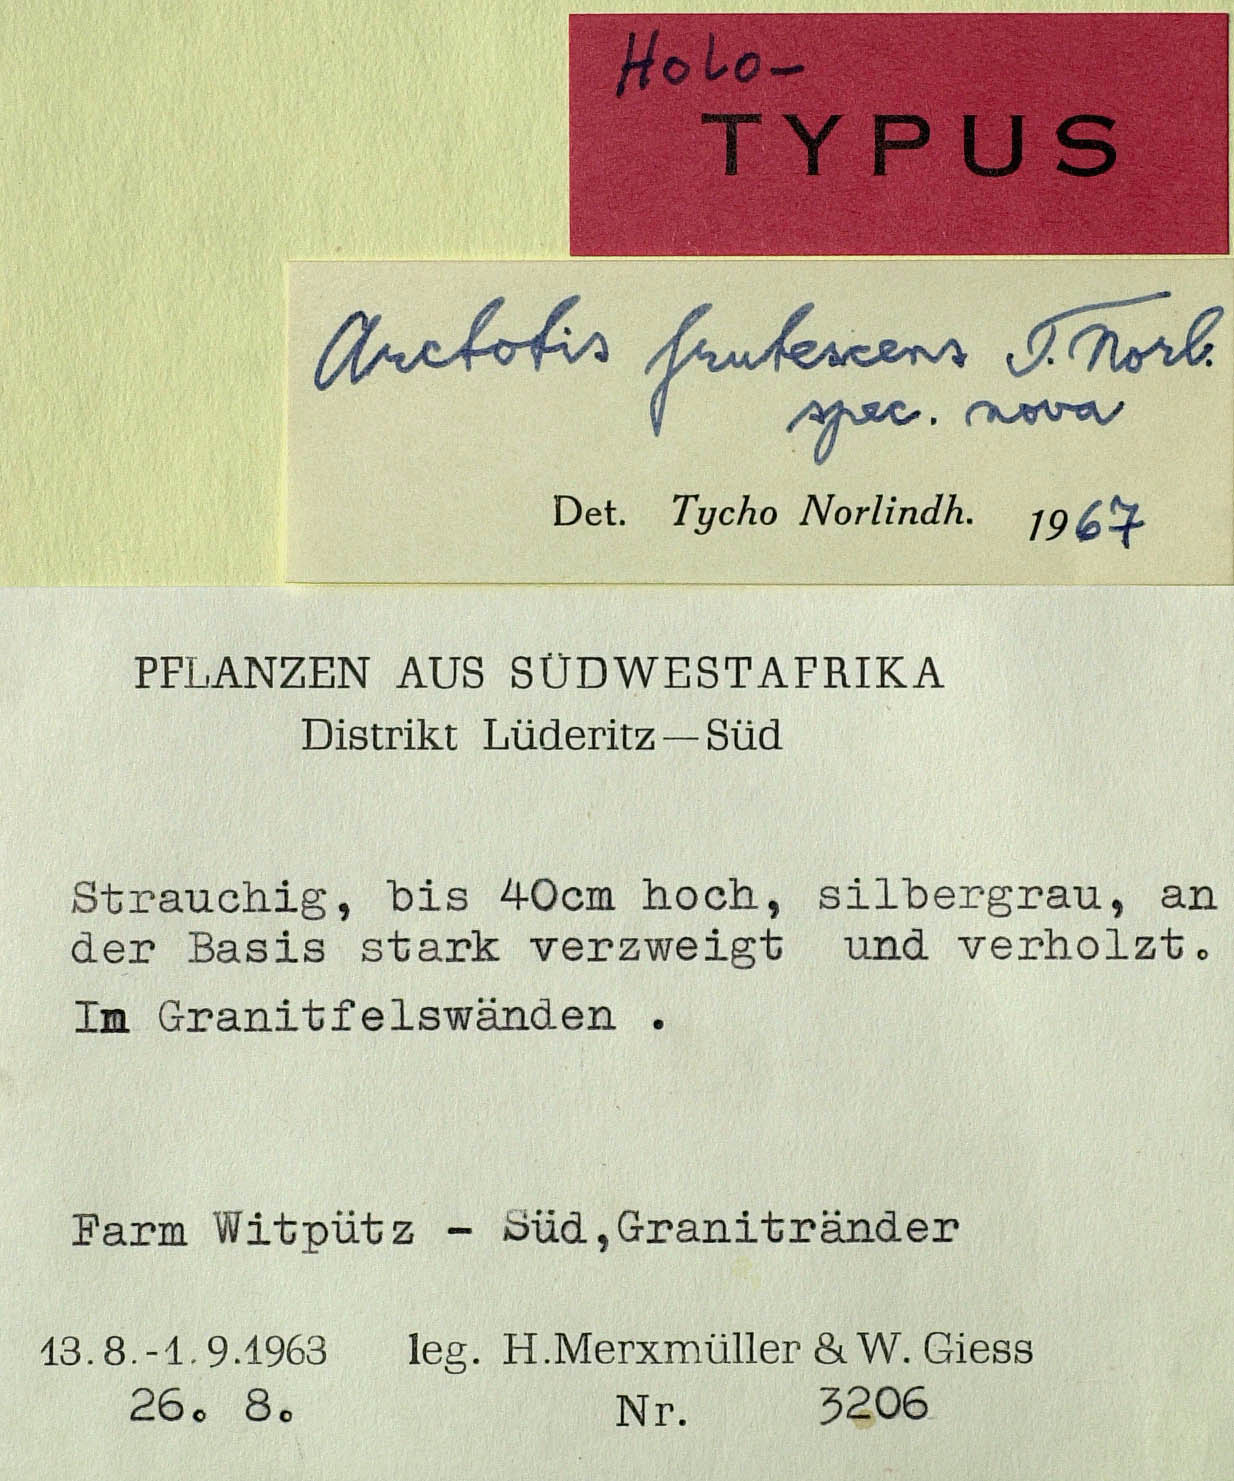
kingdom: Plantae
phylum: Tracheophyta
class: Magnoliopsida
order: Asterales
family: Asteraceae
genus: Arctotis
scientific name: Arctotis frutescens
